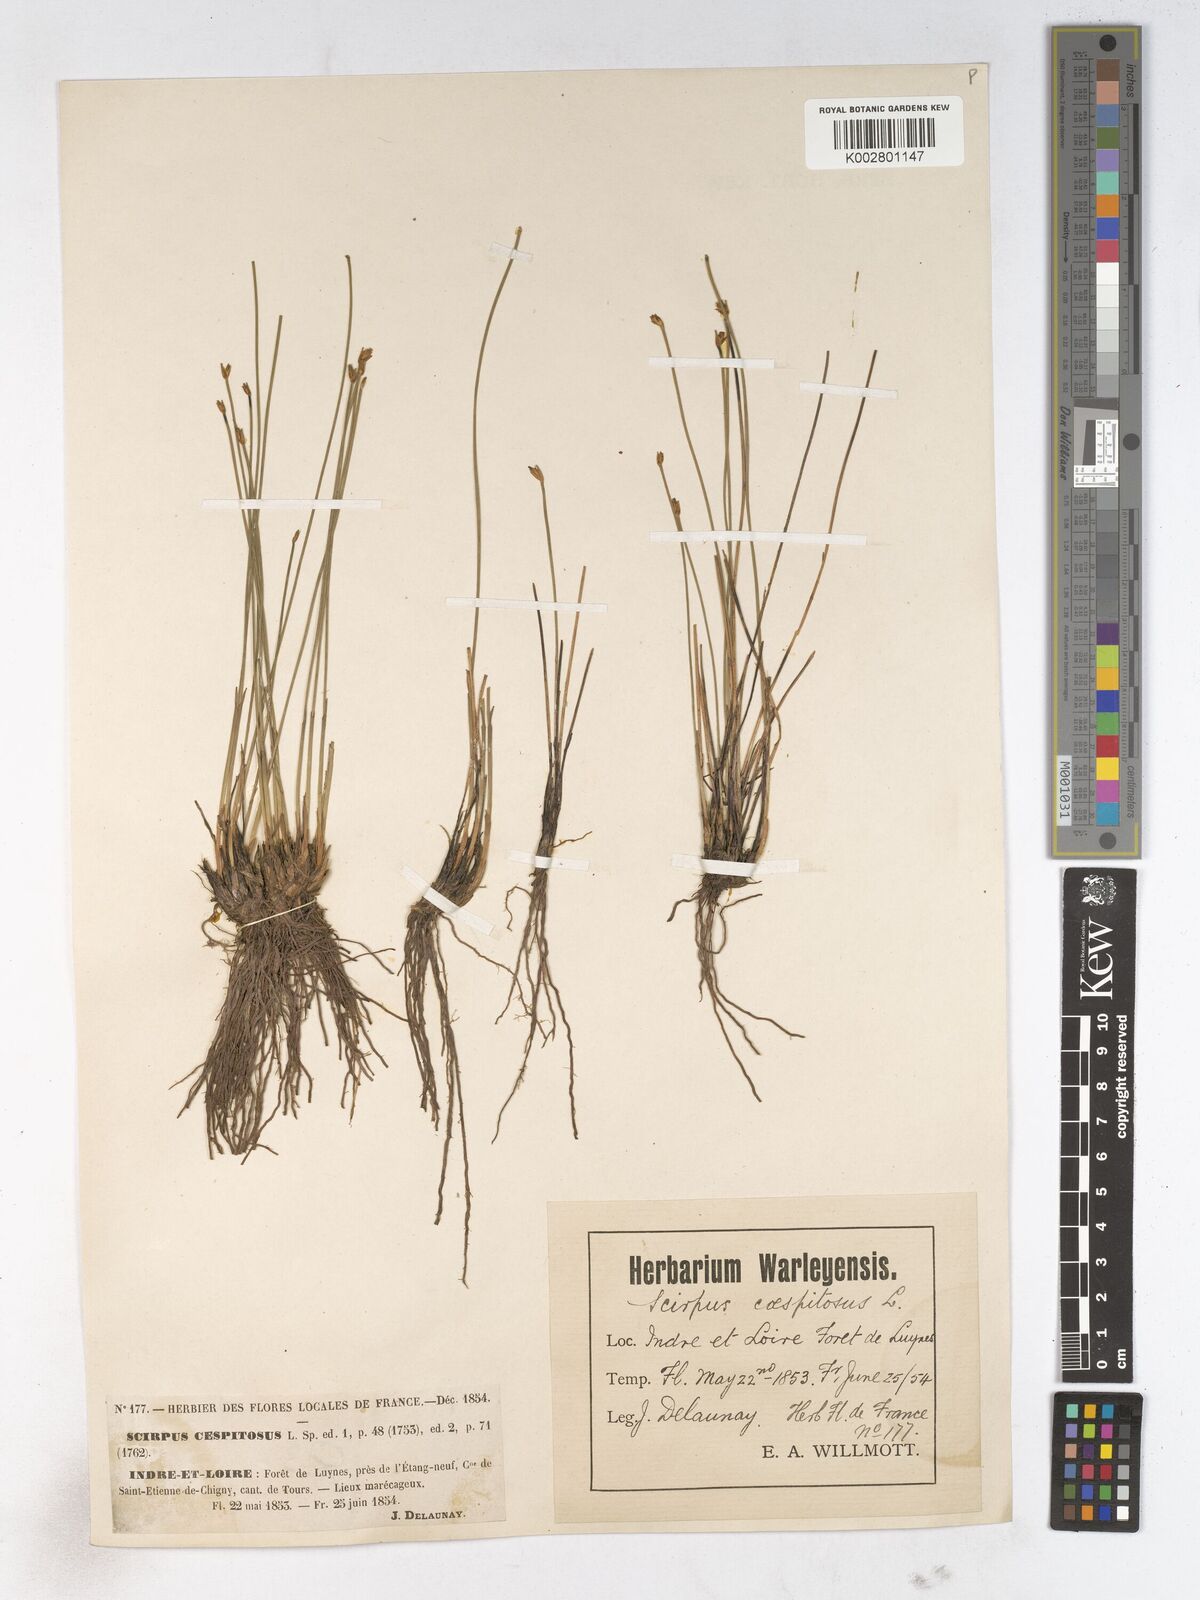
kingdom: Plantae
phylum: Tracheophyta
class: Liliopsida
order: Poales
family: Cyperaceae
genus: Trichophorum
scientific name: Trichophorum cespitosum
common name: Cespitose bulrush
